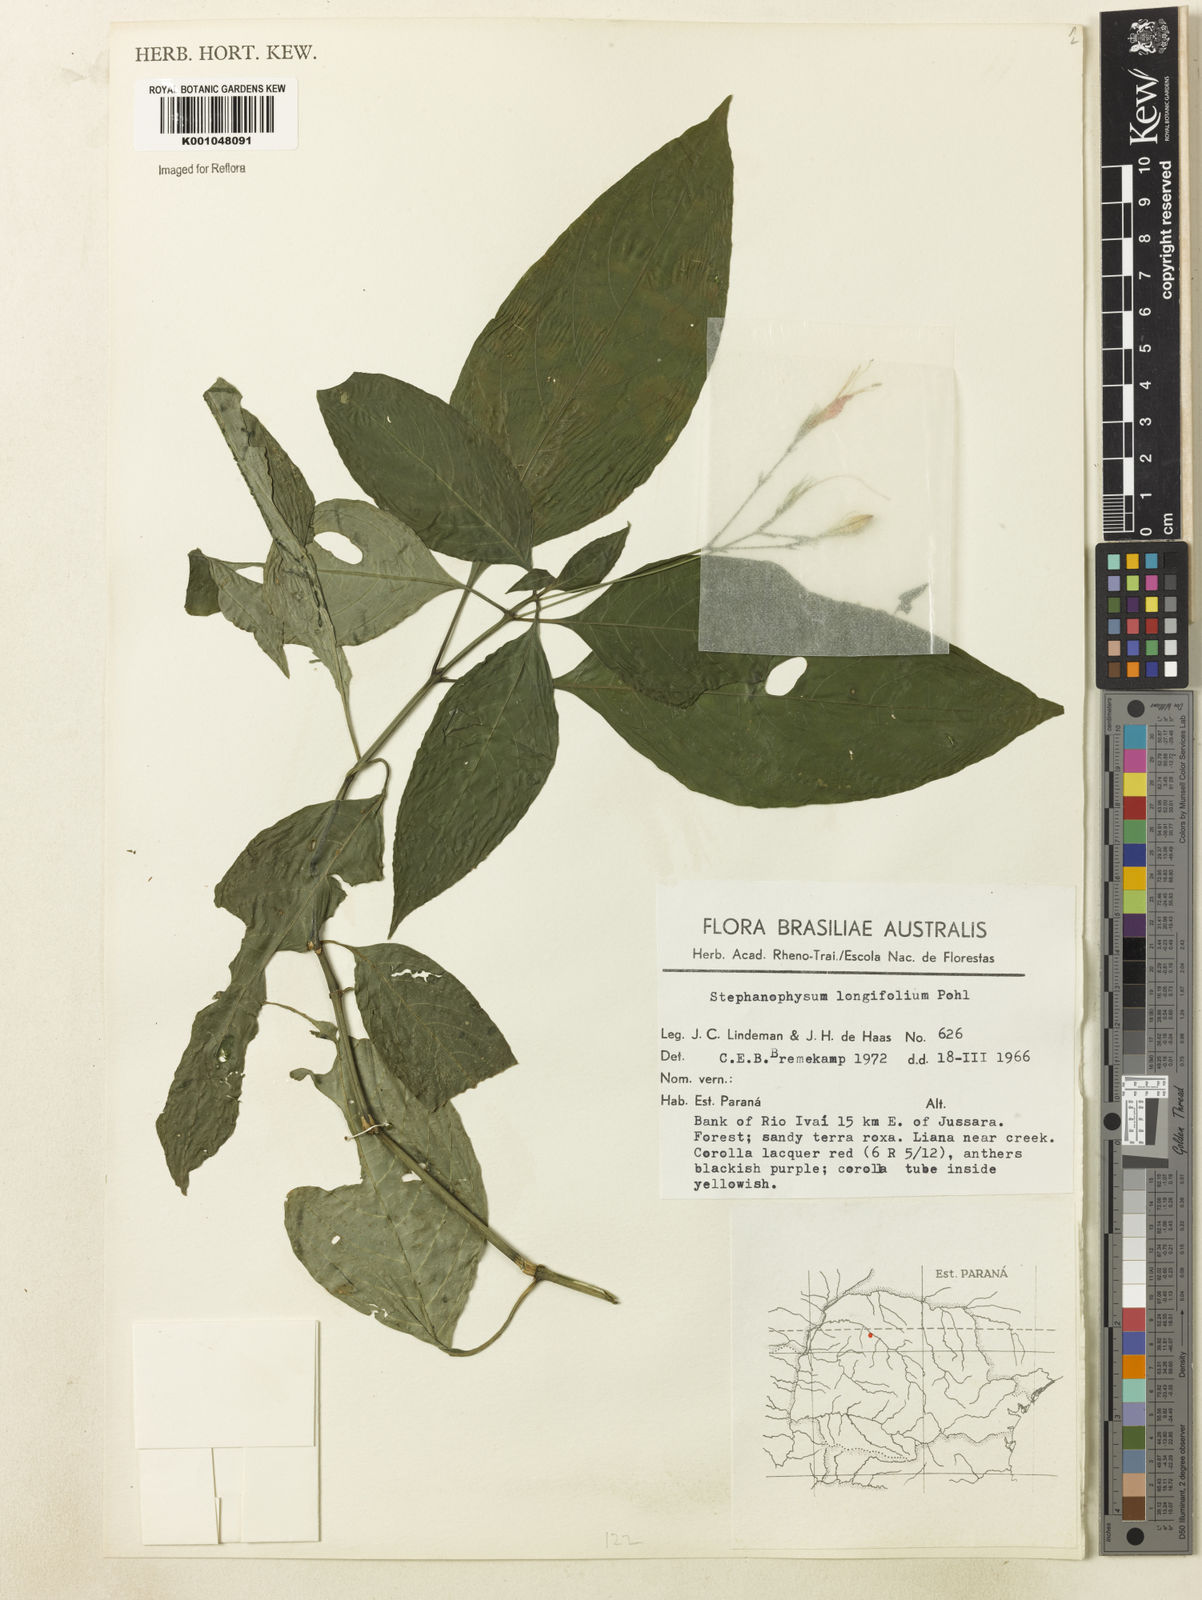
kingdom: Plantae
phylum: Tracheophyta
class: Magnoliopsida
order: Lamiales
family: Acanthaceae
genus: Ruellia
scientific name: Ruellia brevifolia
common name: Tropical wild petunia
